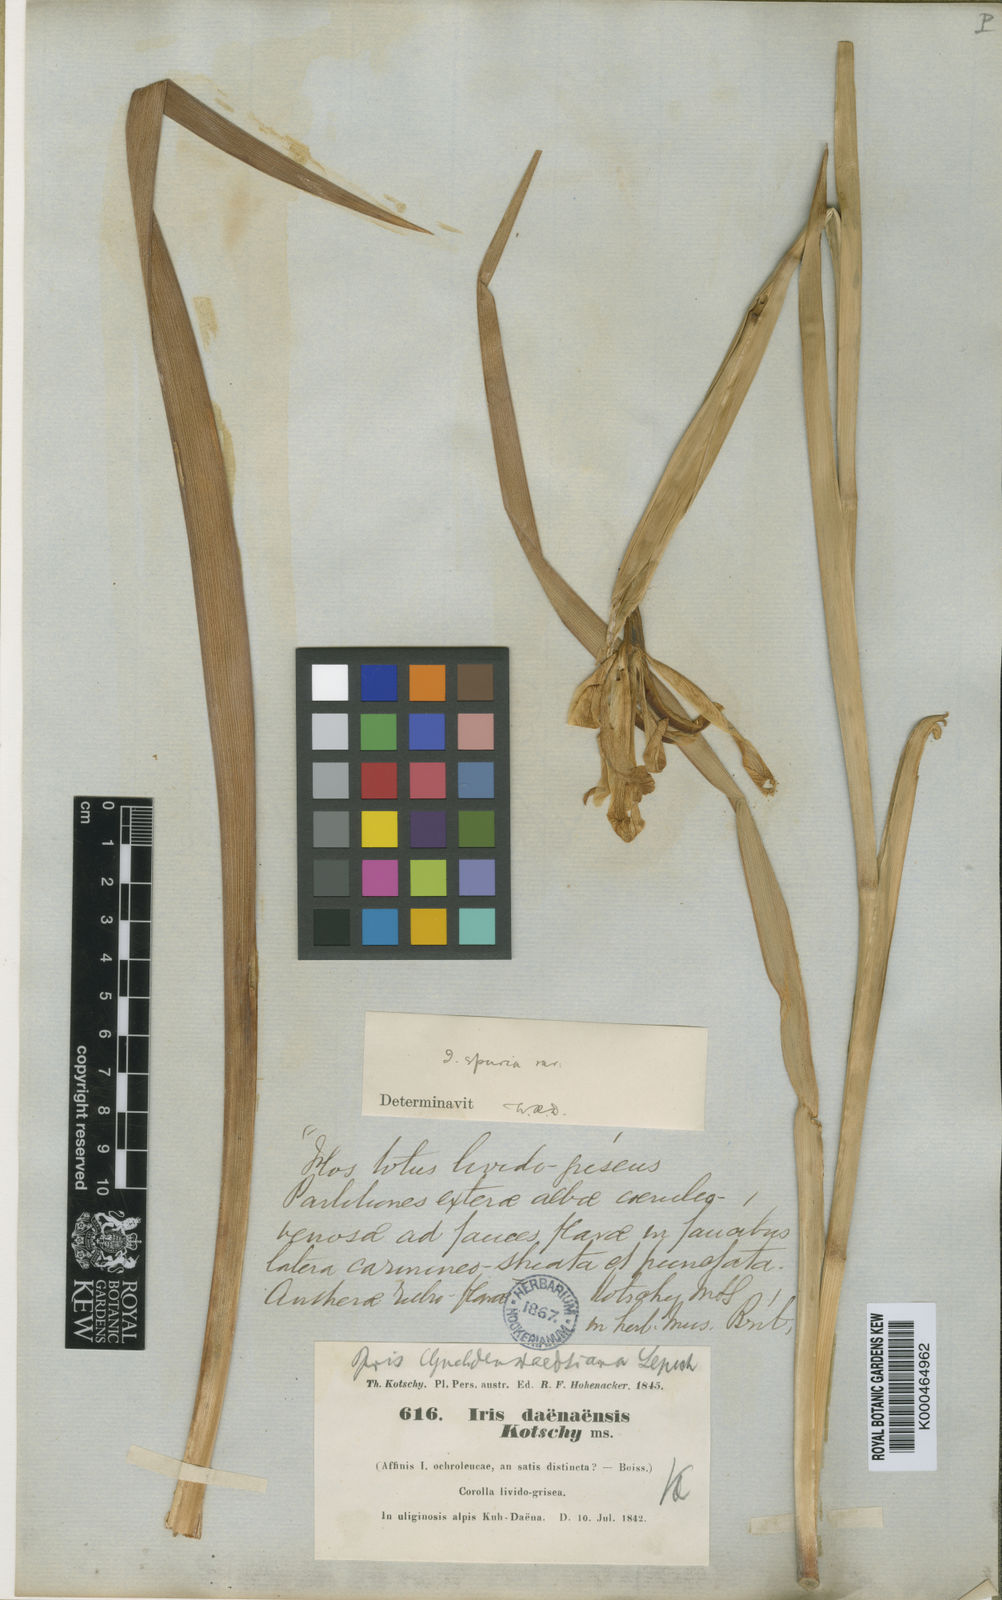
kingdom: Plantae
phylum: Tracheophyta
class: Liliopsida
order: Asparagales
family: Iridaceae
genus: Iris
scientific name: Iris
